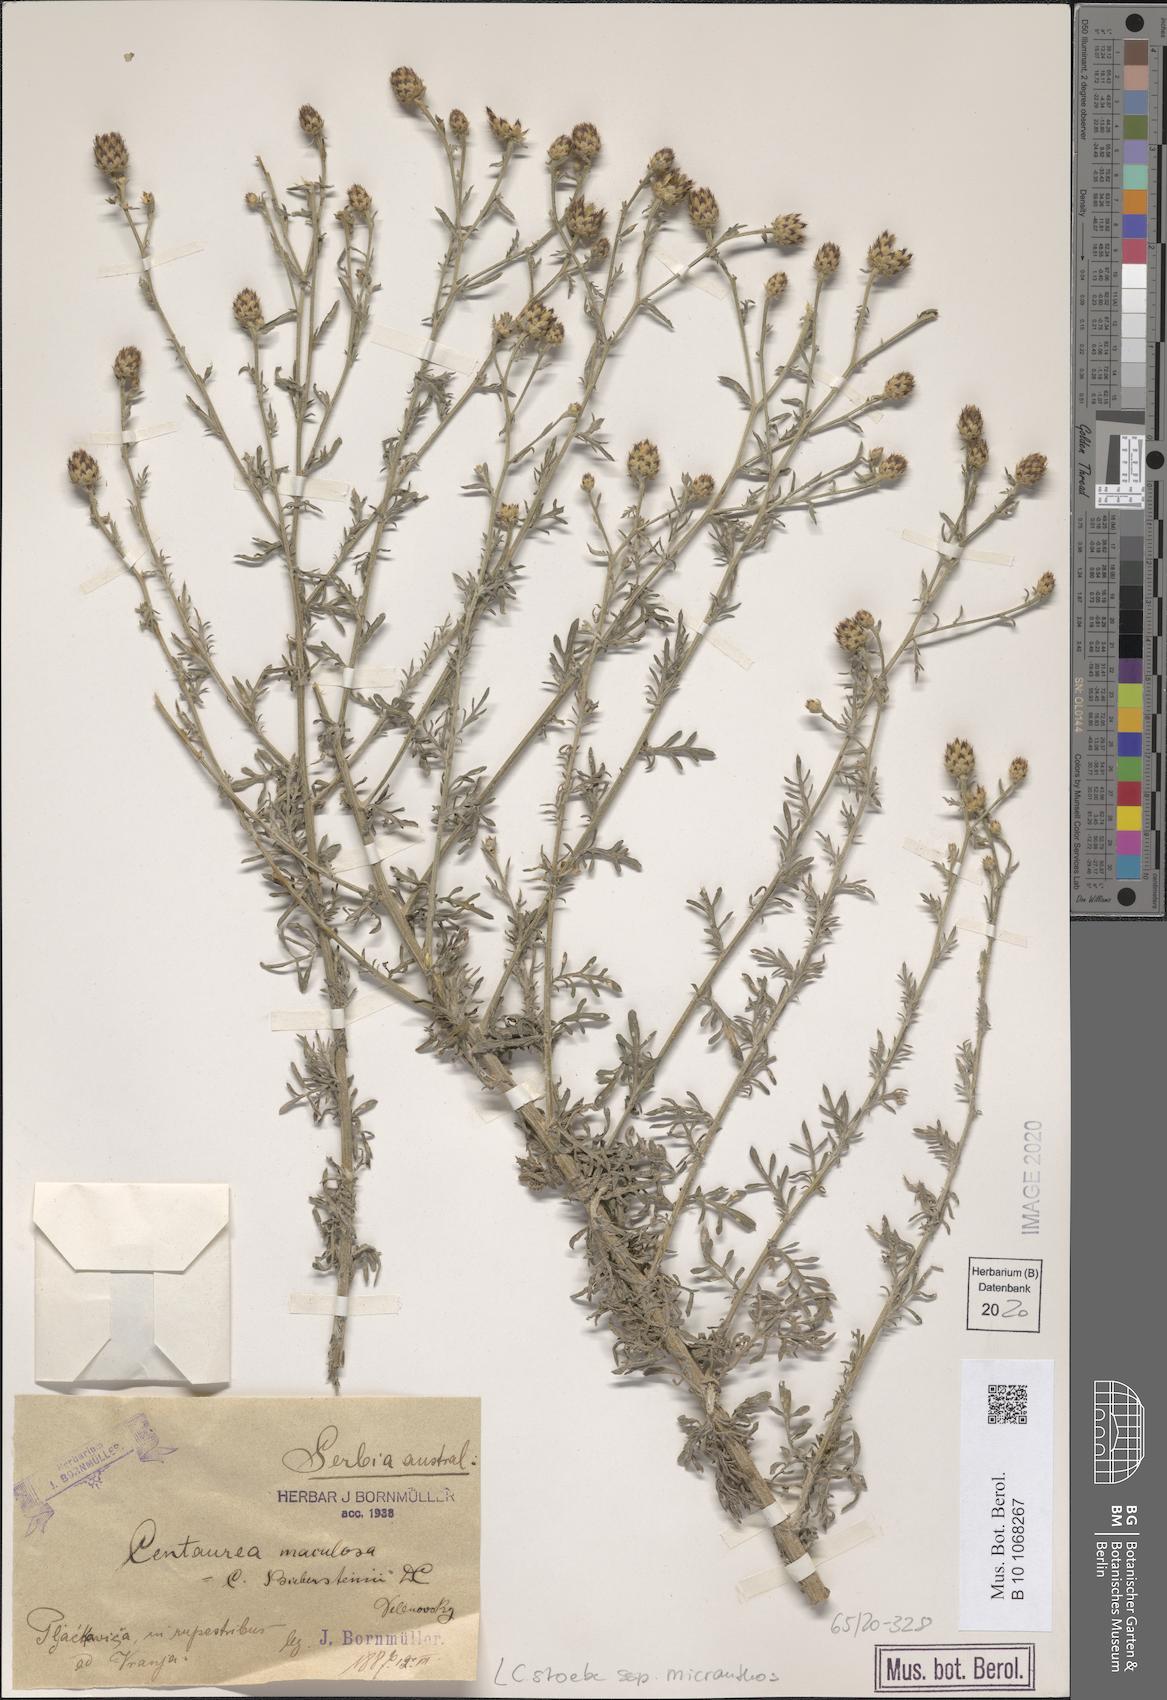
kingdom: Plantae
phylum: Tracheophyta
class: Magnoliopsida
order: Asterales
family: Asteraceae
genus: Centaurea
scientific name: Centaurea australis
